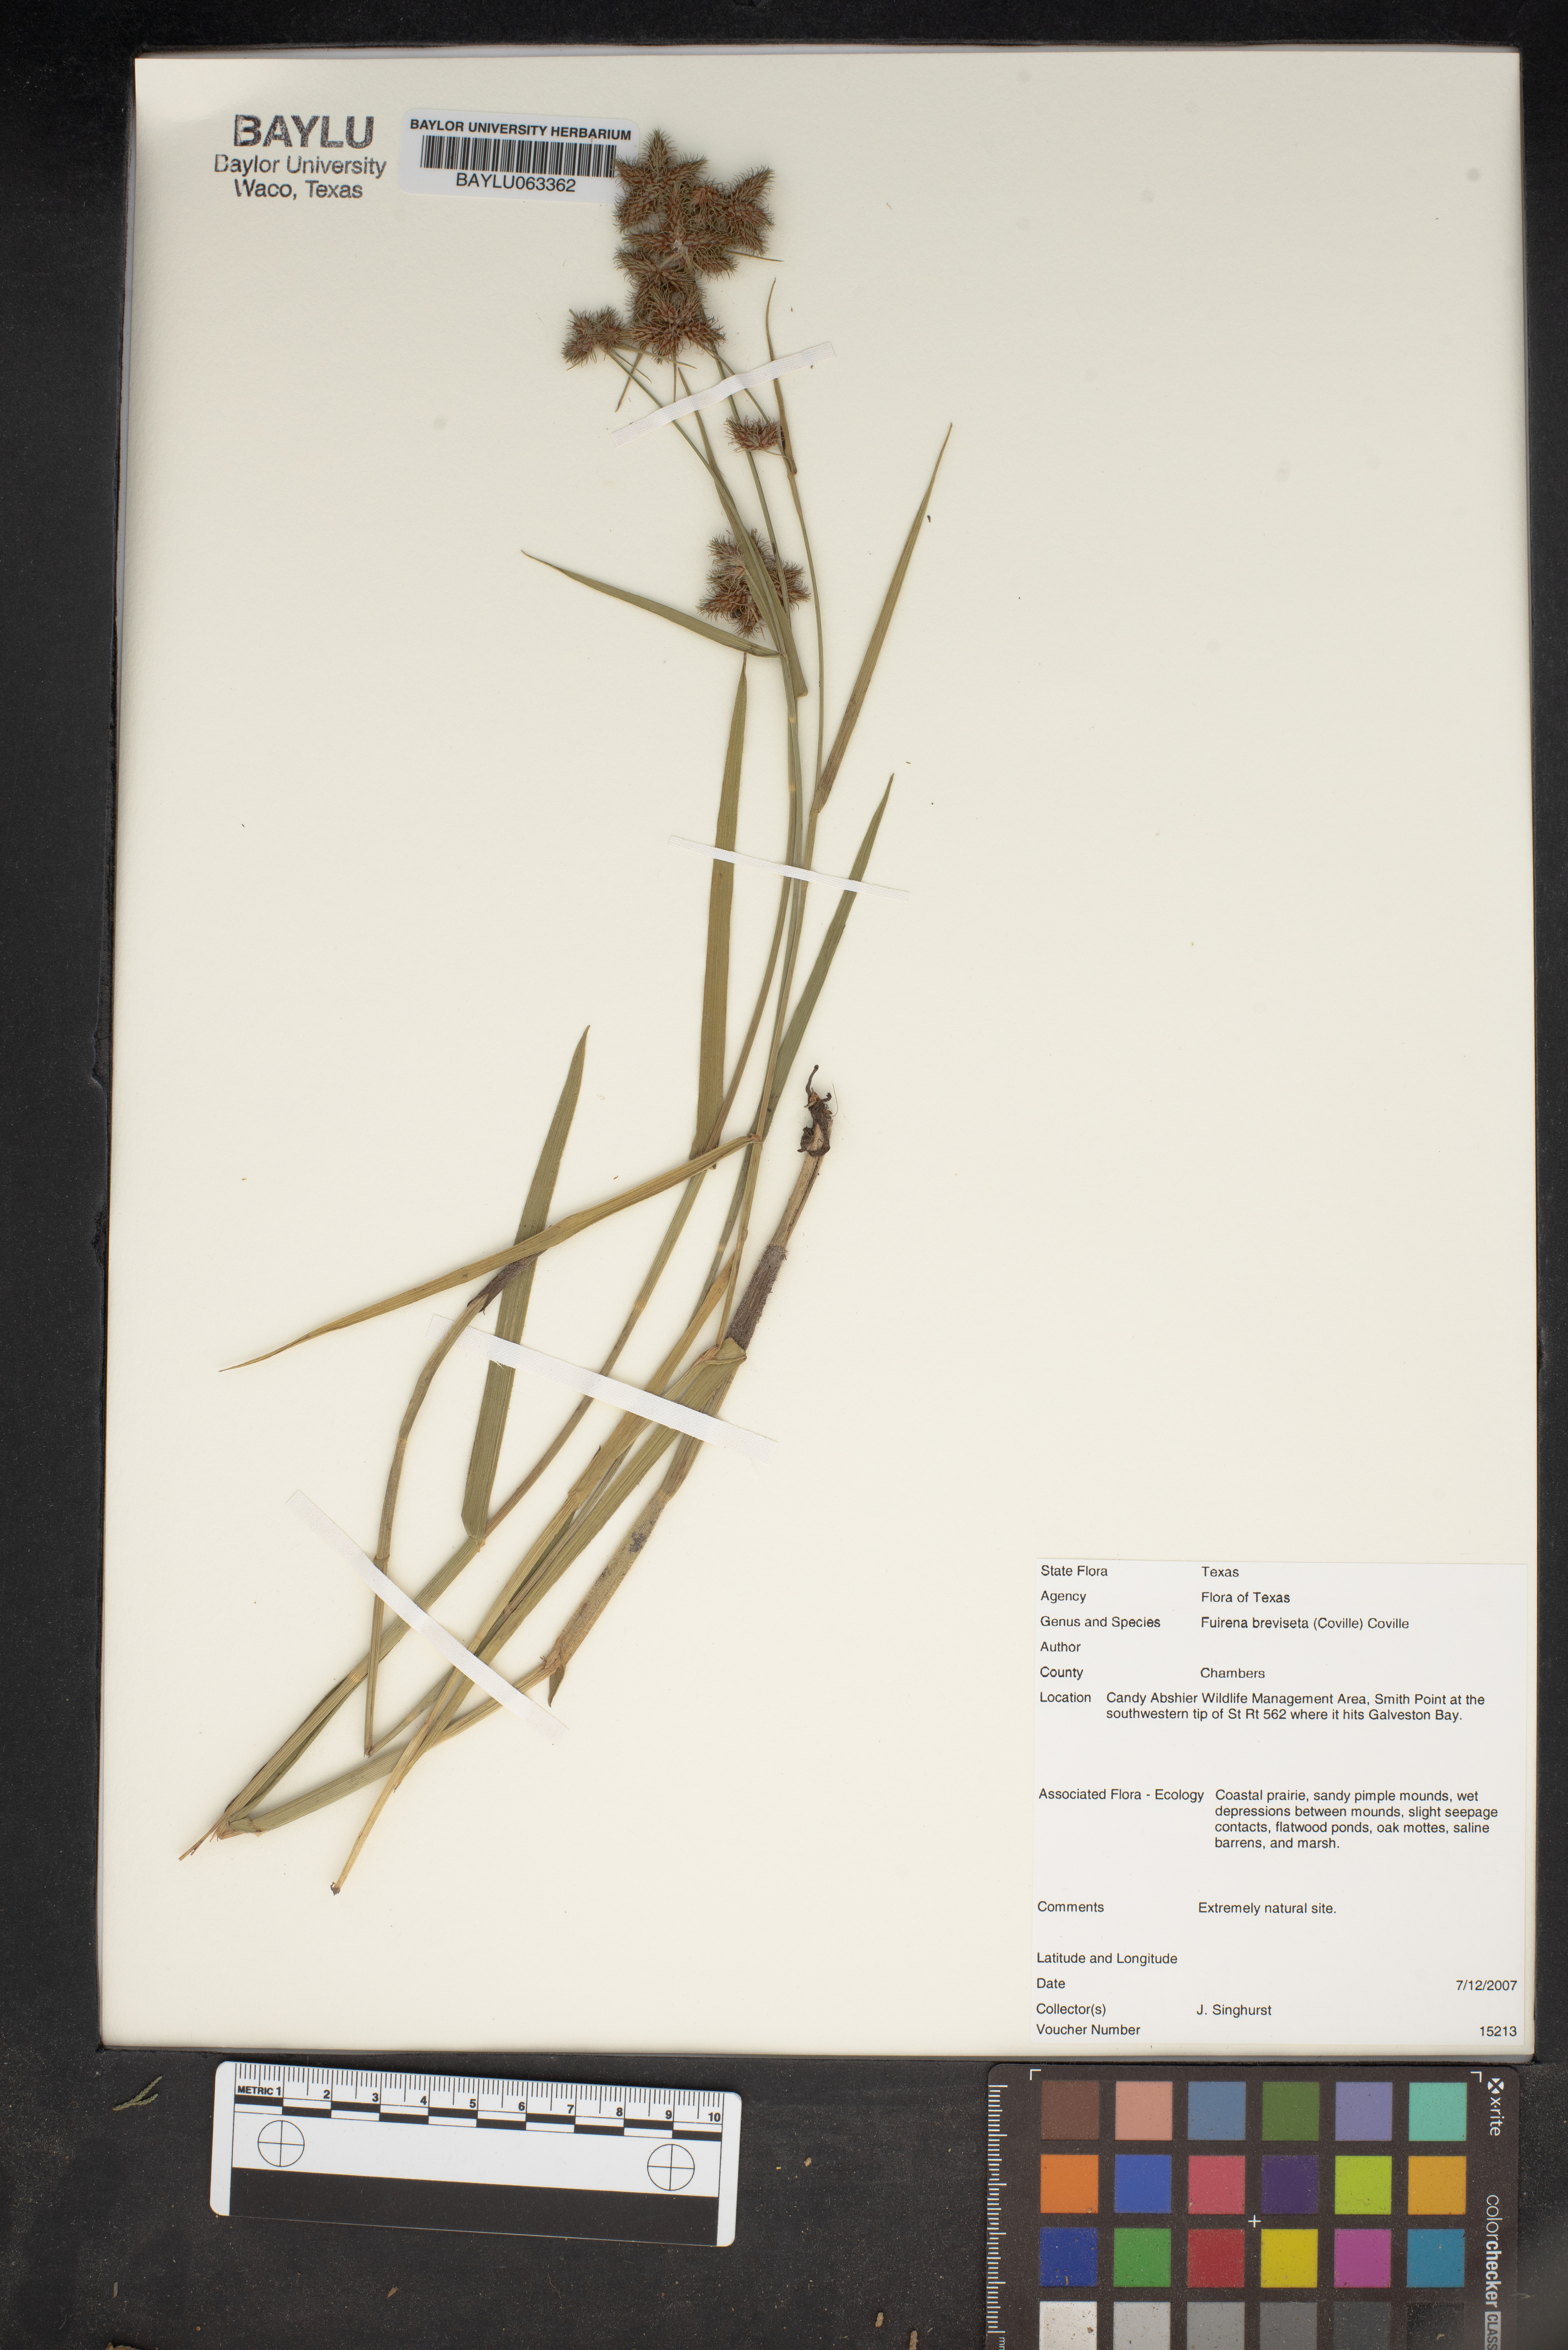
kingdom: Plantae
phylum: Tracheophyta
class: Liliopsida
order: Poales
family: Cyperaceae
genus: Fuirena
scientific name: Fuirena breviseta
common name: Saltmarsh umbrella sedge
